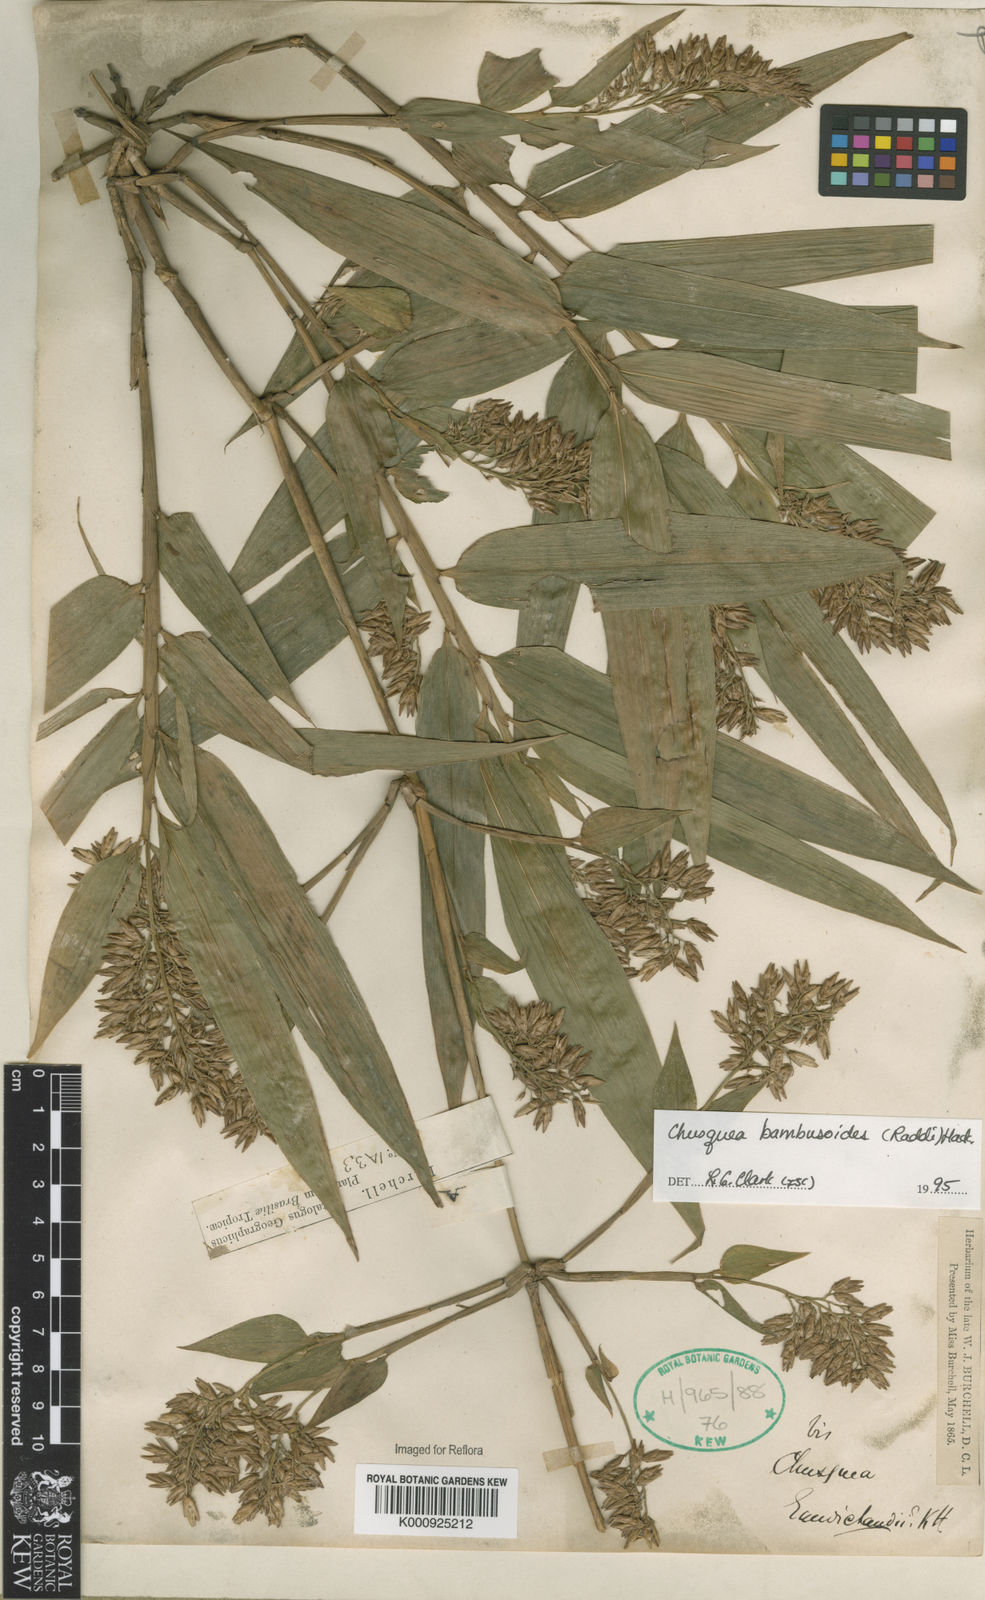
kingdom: Plantae
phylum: Tracheophyta
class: Liliopsida
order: Poales
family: Poaceae
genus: Chusquea
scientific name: Chusquea bambusoides
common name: Brazil scrambling bamboo
